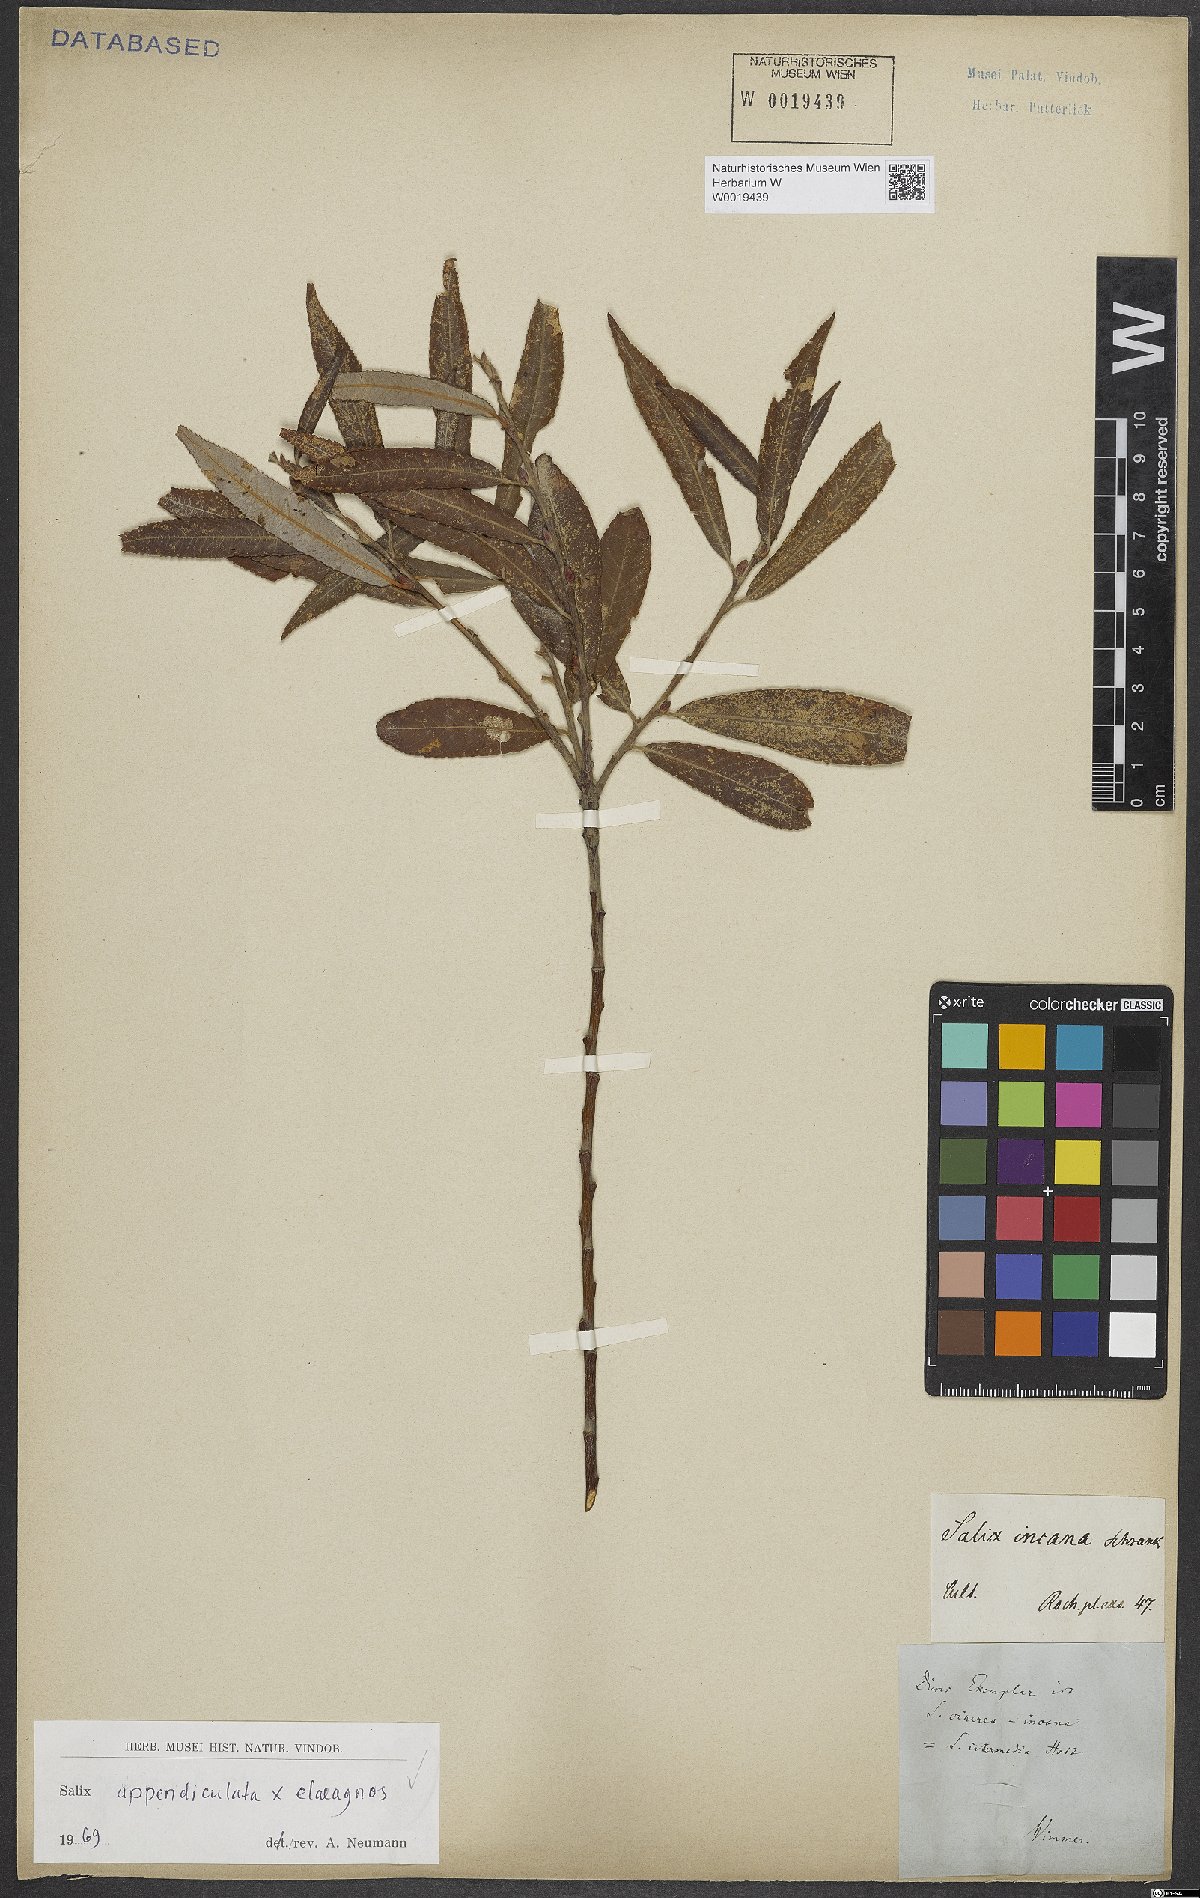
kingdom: Plantae
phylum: Tracheophyta
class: Magnoliopsida
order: Malpighiales
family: Salicaceae
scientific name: Salicaceae
